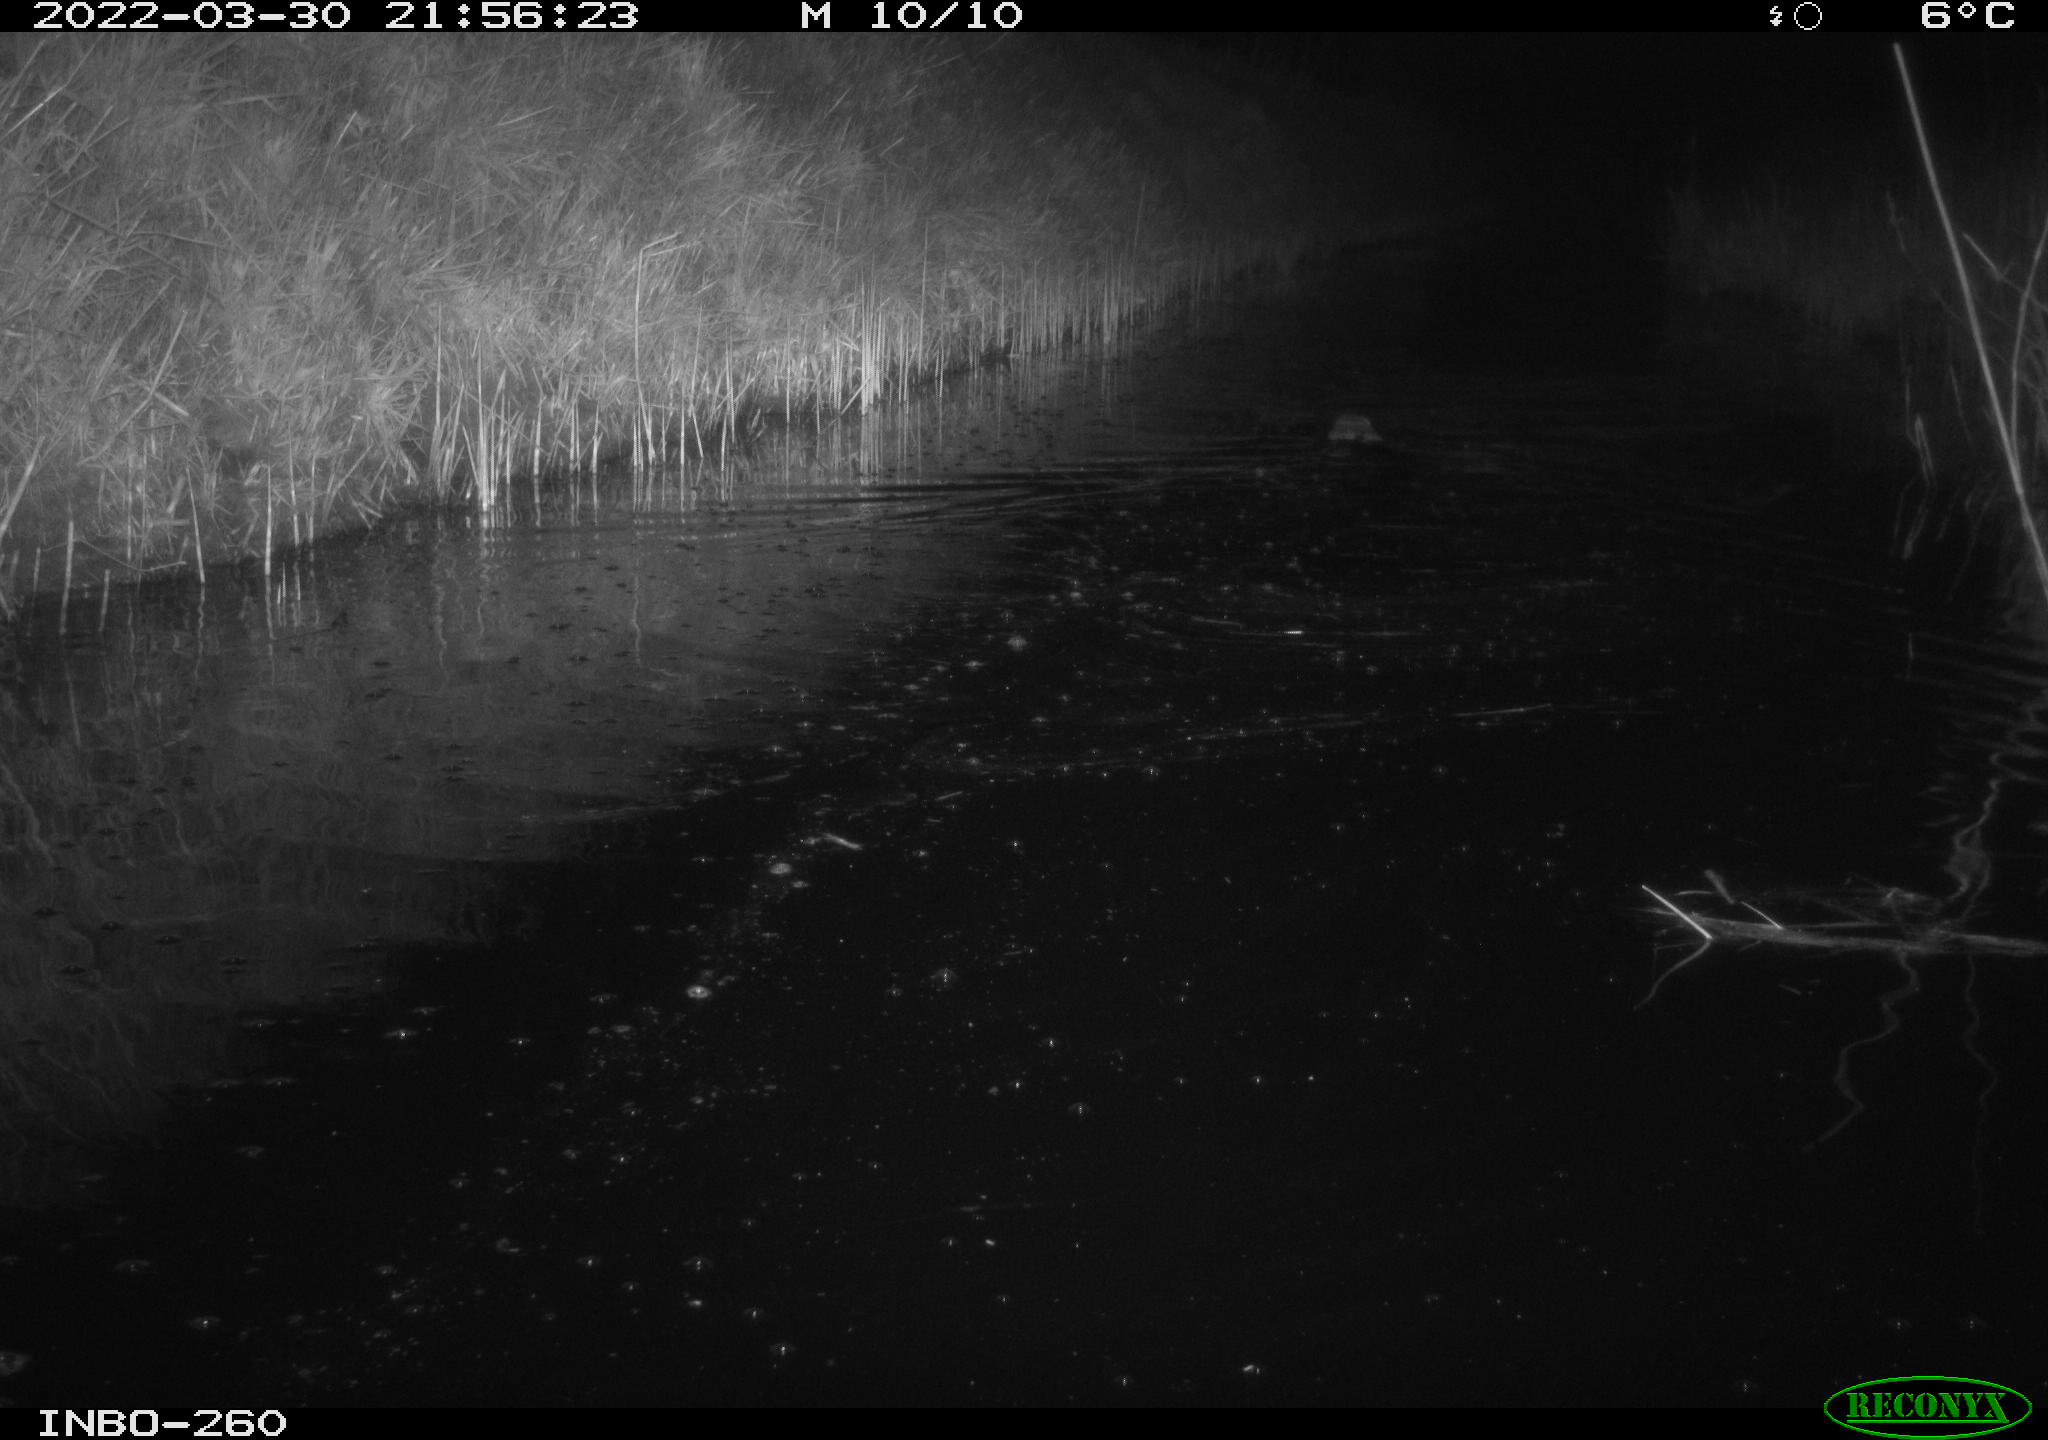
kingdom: Animalia
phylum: Chordata
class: Mammalia
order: Rodentia
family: Cricetidae
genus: Ondatra
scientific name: Ondatra zibethicus
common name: Muskrat
